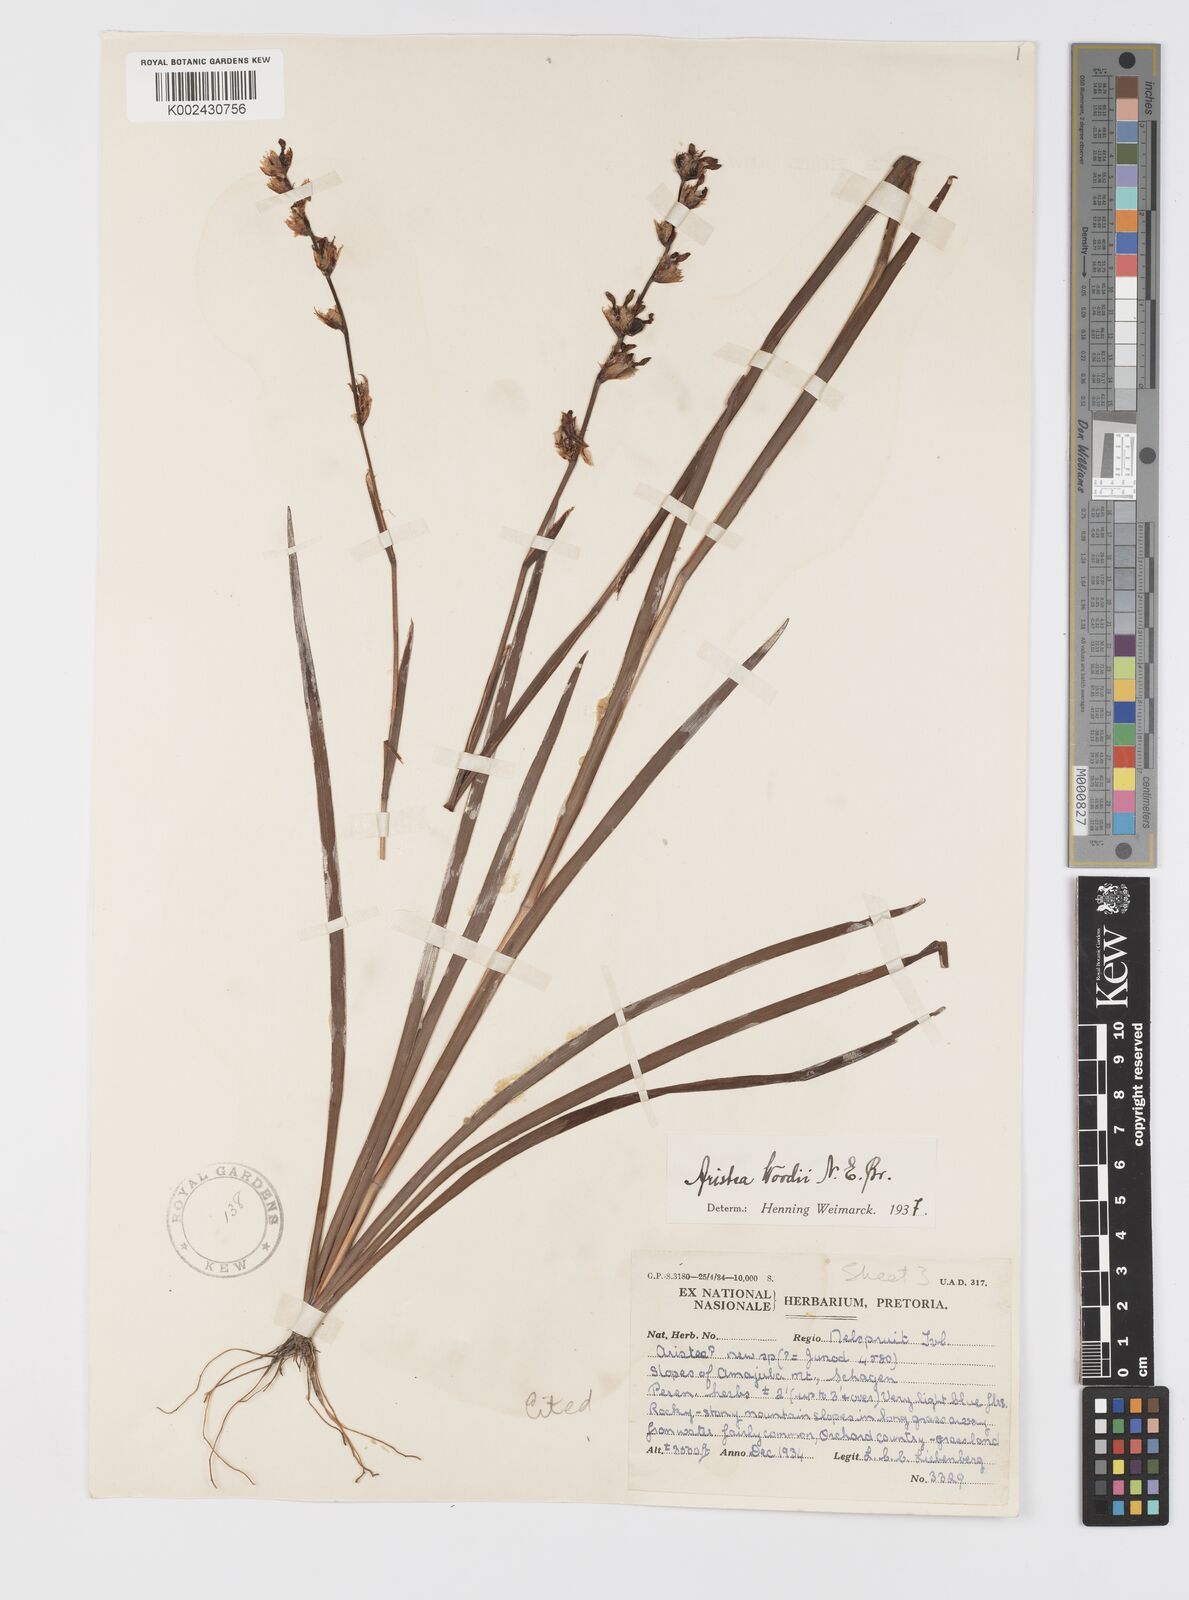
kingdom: Plantae
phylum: Tracheophyta
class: Liliopsida
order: Asparagales
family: Iridaceae
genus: Aristea
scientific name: Aristea torulosa
